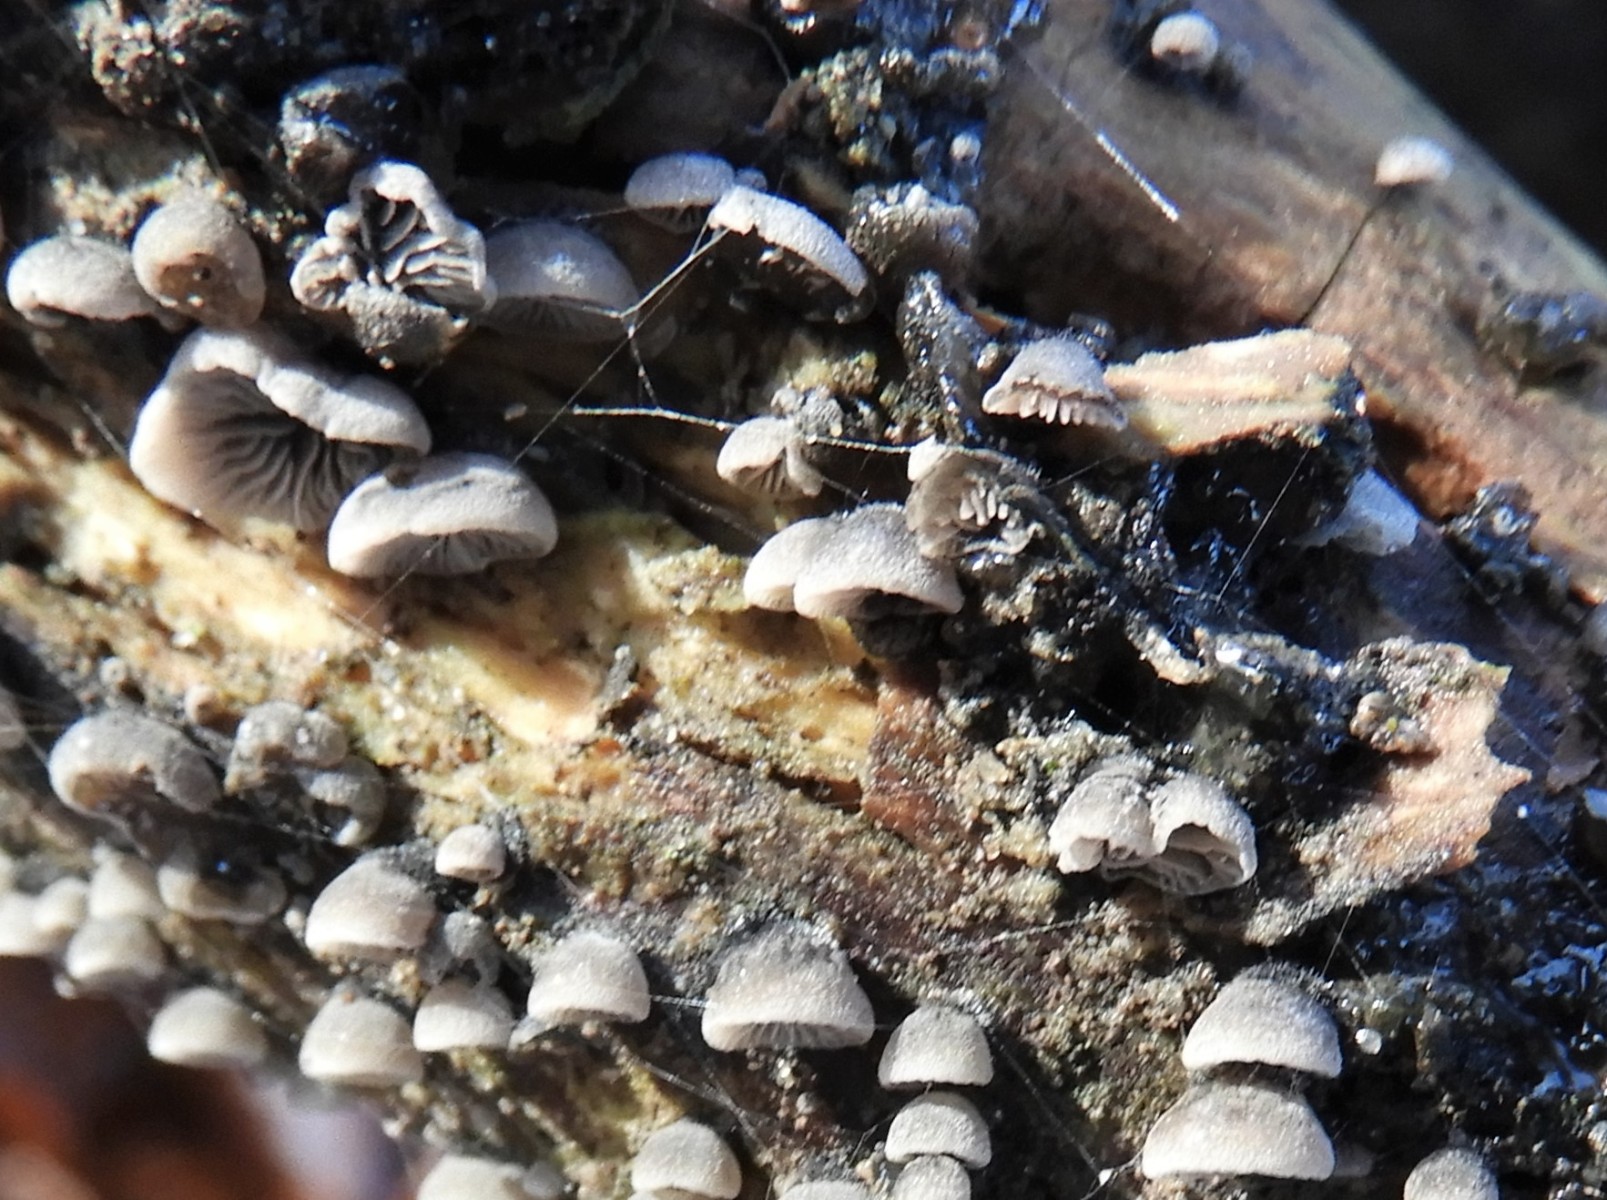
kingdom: Fungi
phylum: Basidiomycota
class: Agaricomycetes
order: Agaricales
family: Pleurotaceae
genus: Resupinatus
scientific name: Resupinatus trichotis
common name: mørkfiltet barkhat
